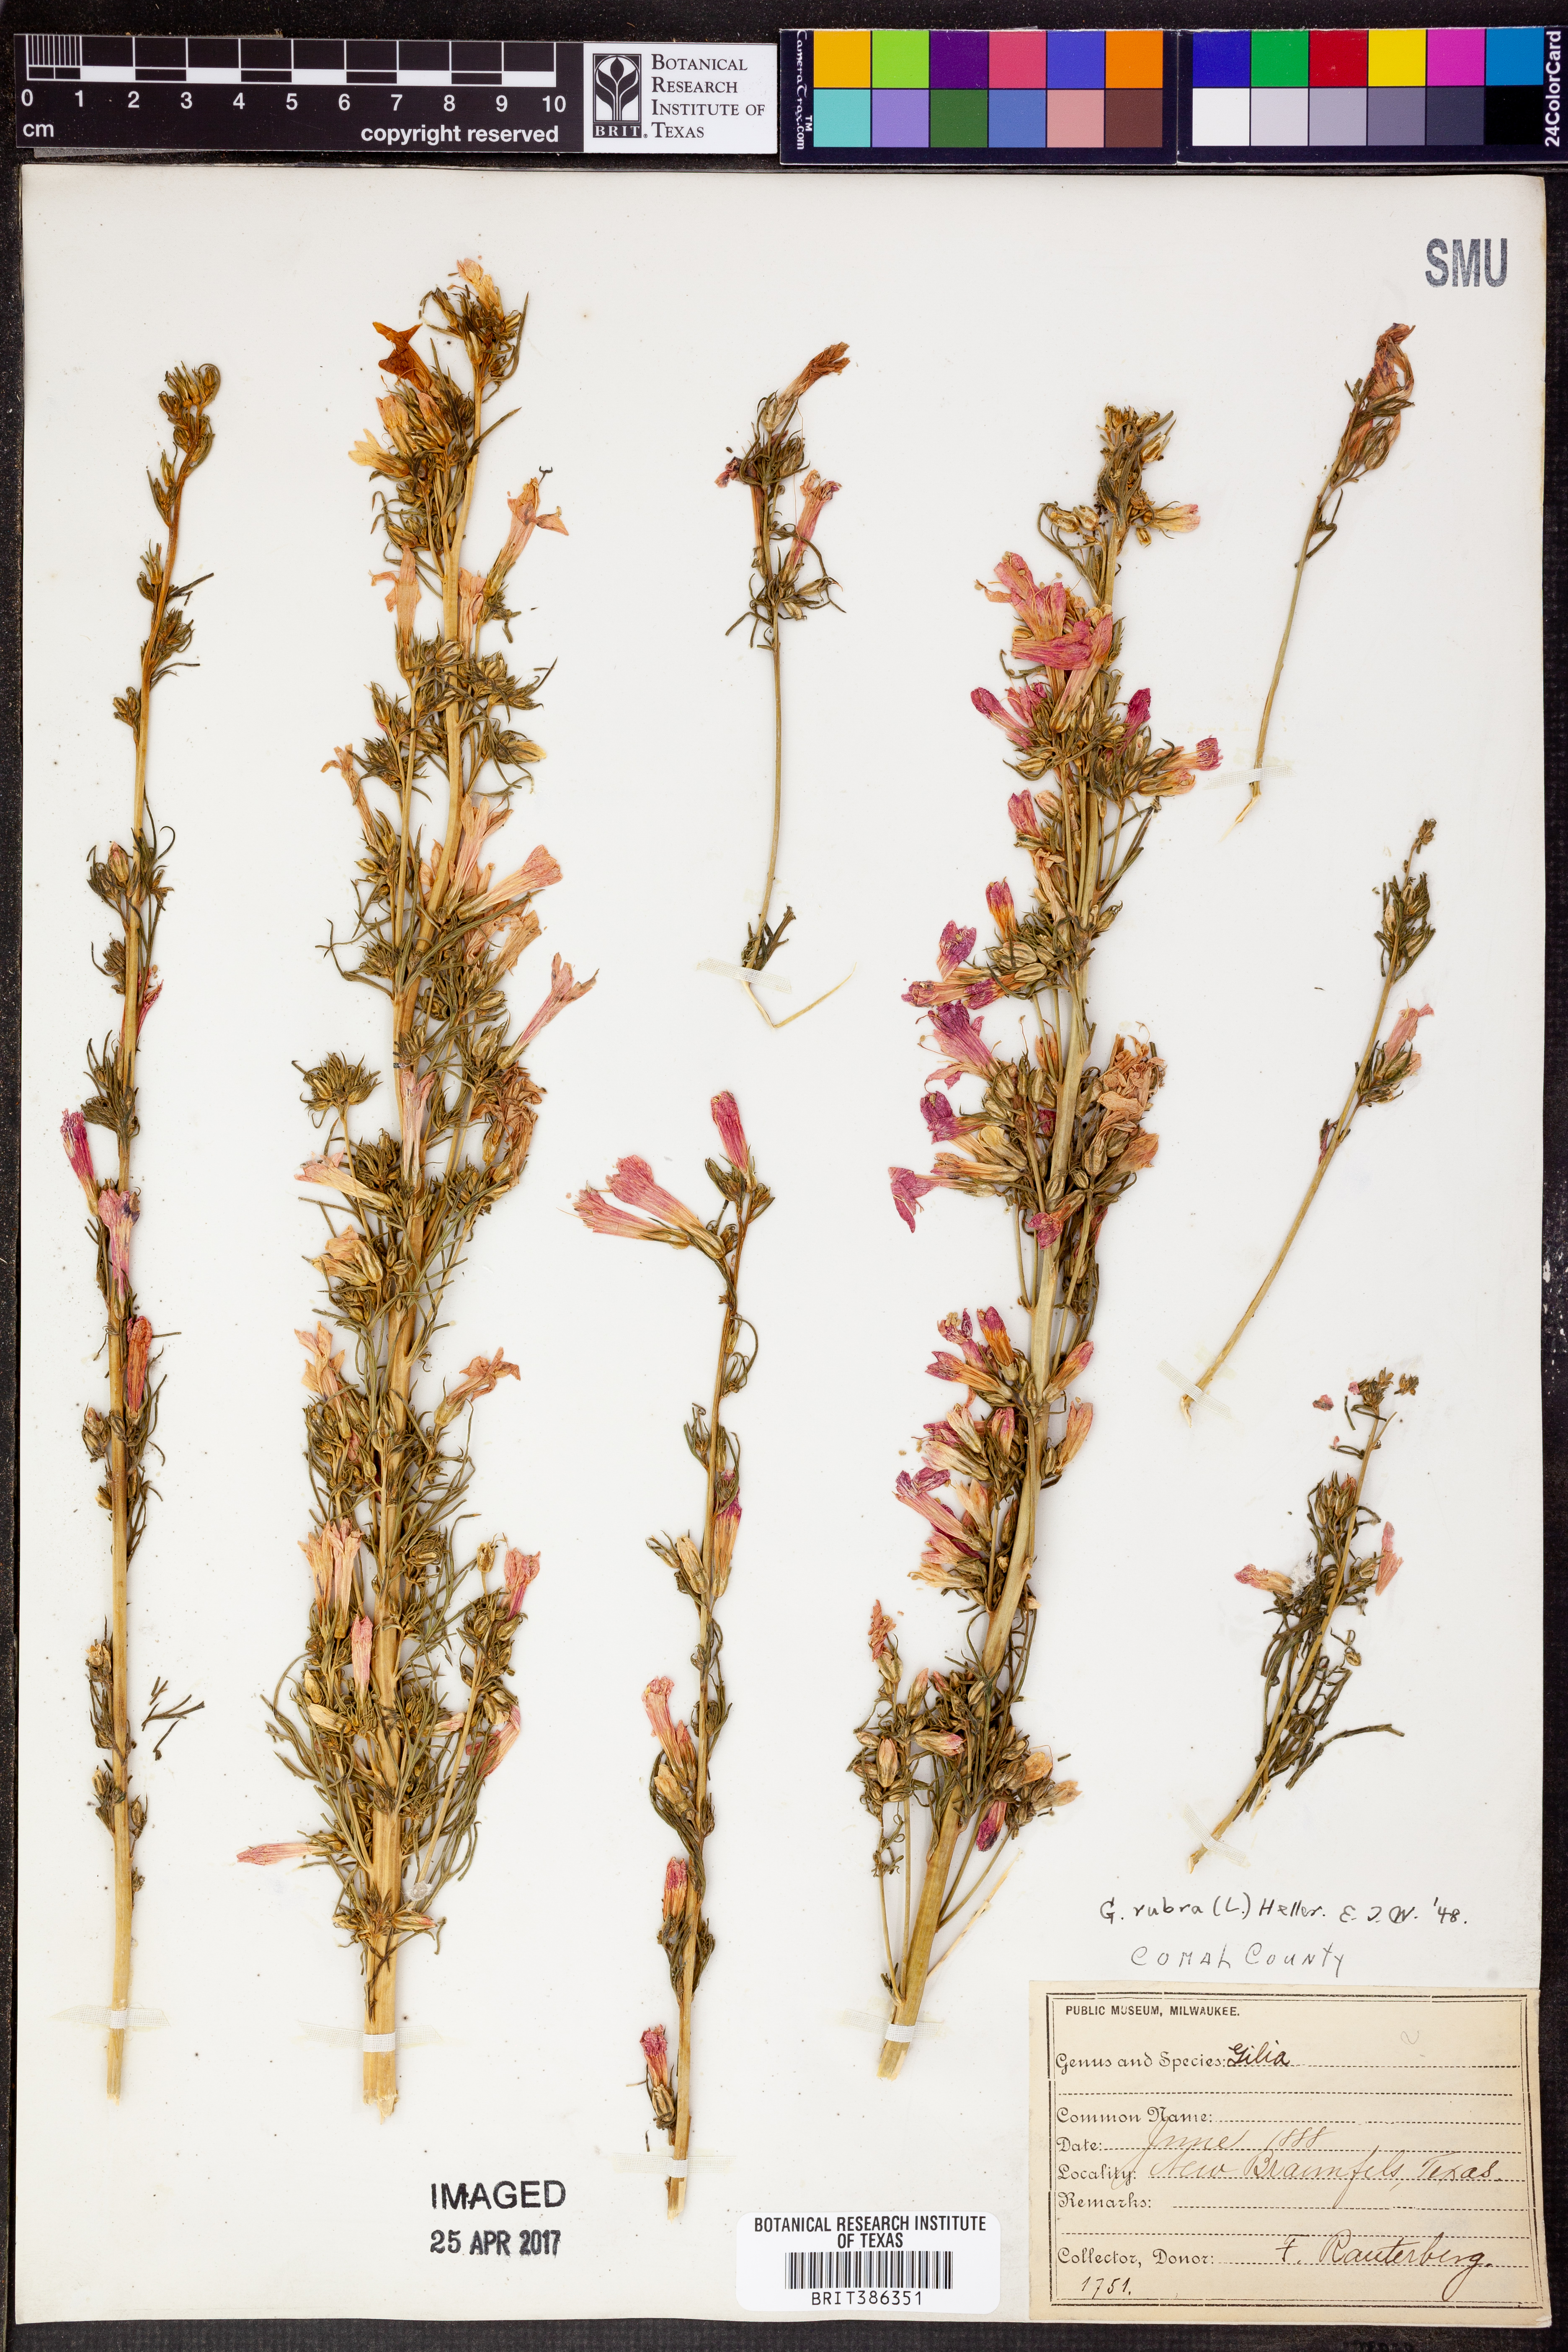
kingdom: Plantae
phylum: Tracheophyta
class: Magnoliopsida
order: Ericales
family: Polemoniaceae
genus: Ipomopsis
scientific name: Ipomopsis rubra
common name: Skyrocket
